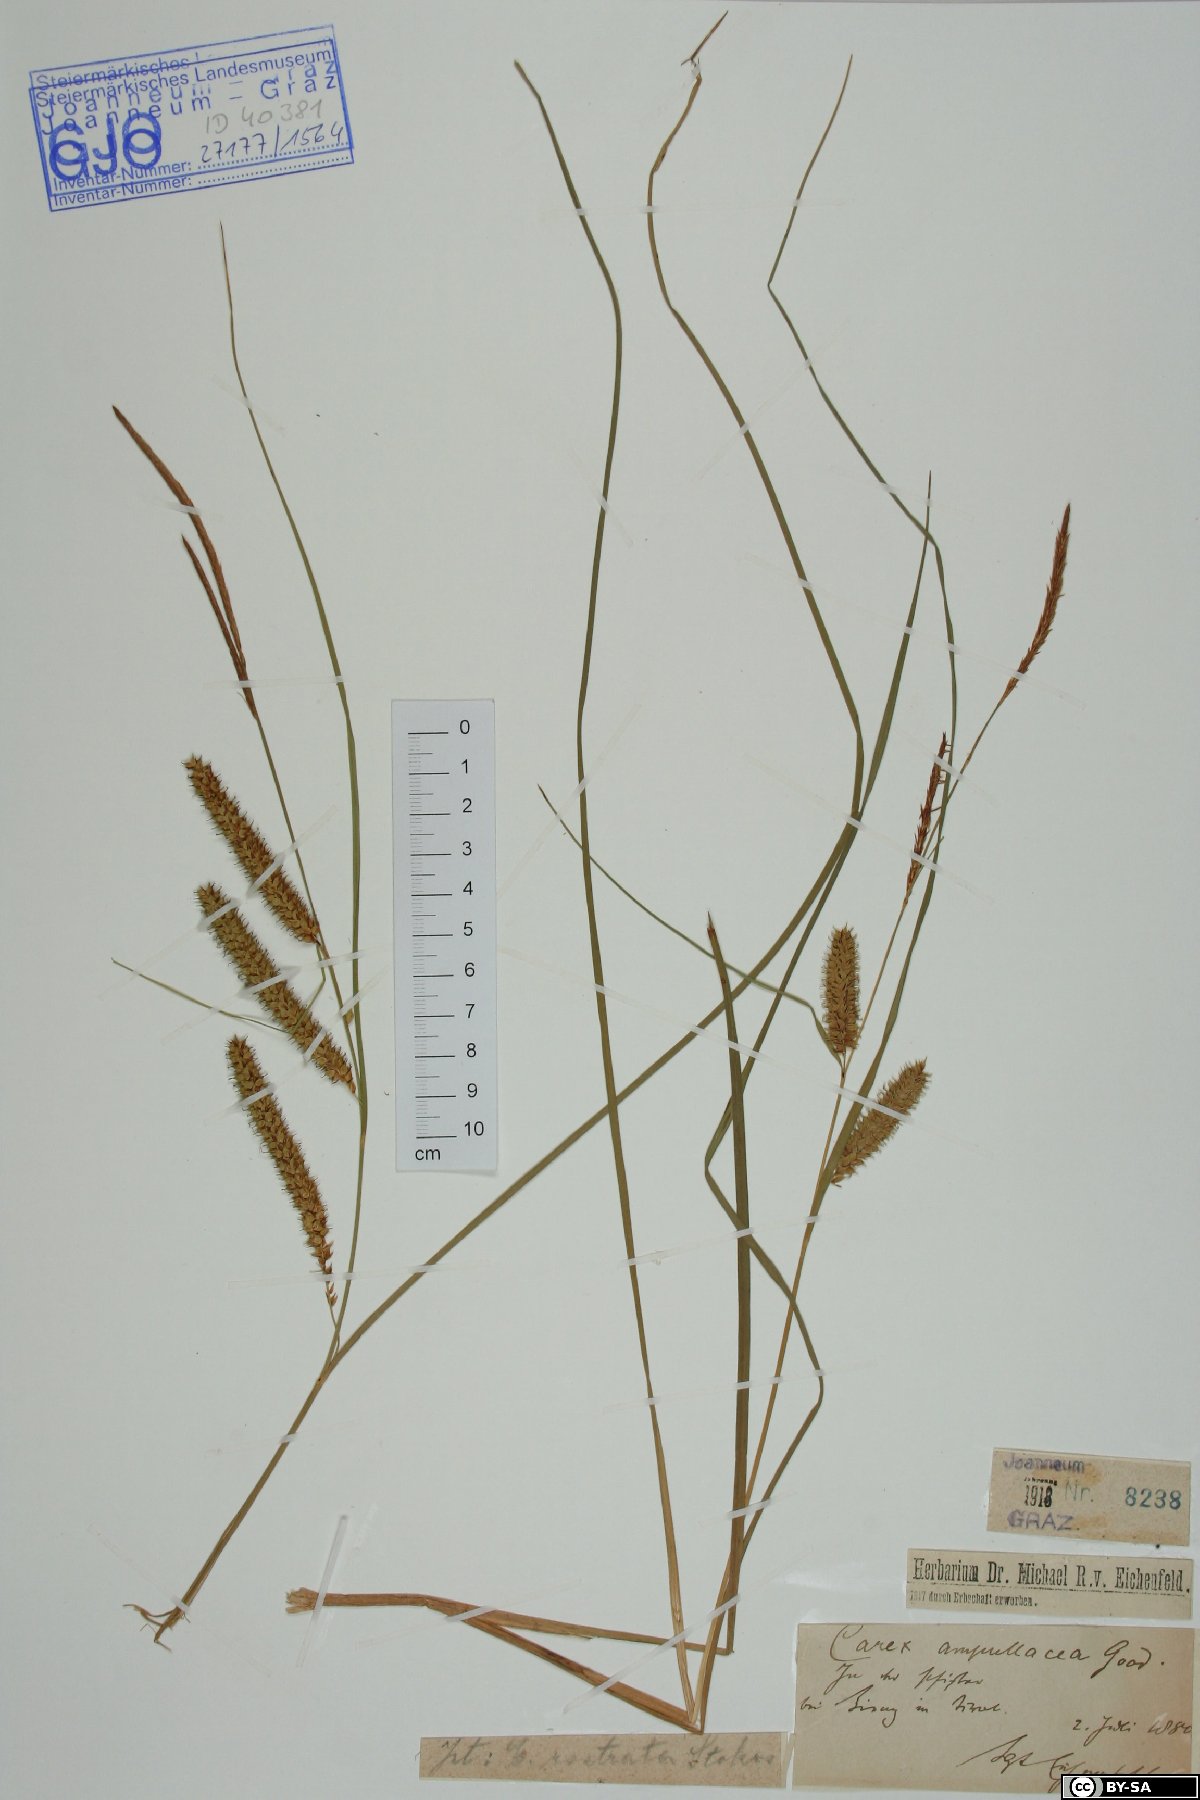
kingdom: Plantae
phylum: Tracheophyta
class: Liliopsida
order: Poales
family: Cyperaceae
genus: Carex
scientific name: Carex rostrata
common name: Bottle sedge
